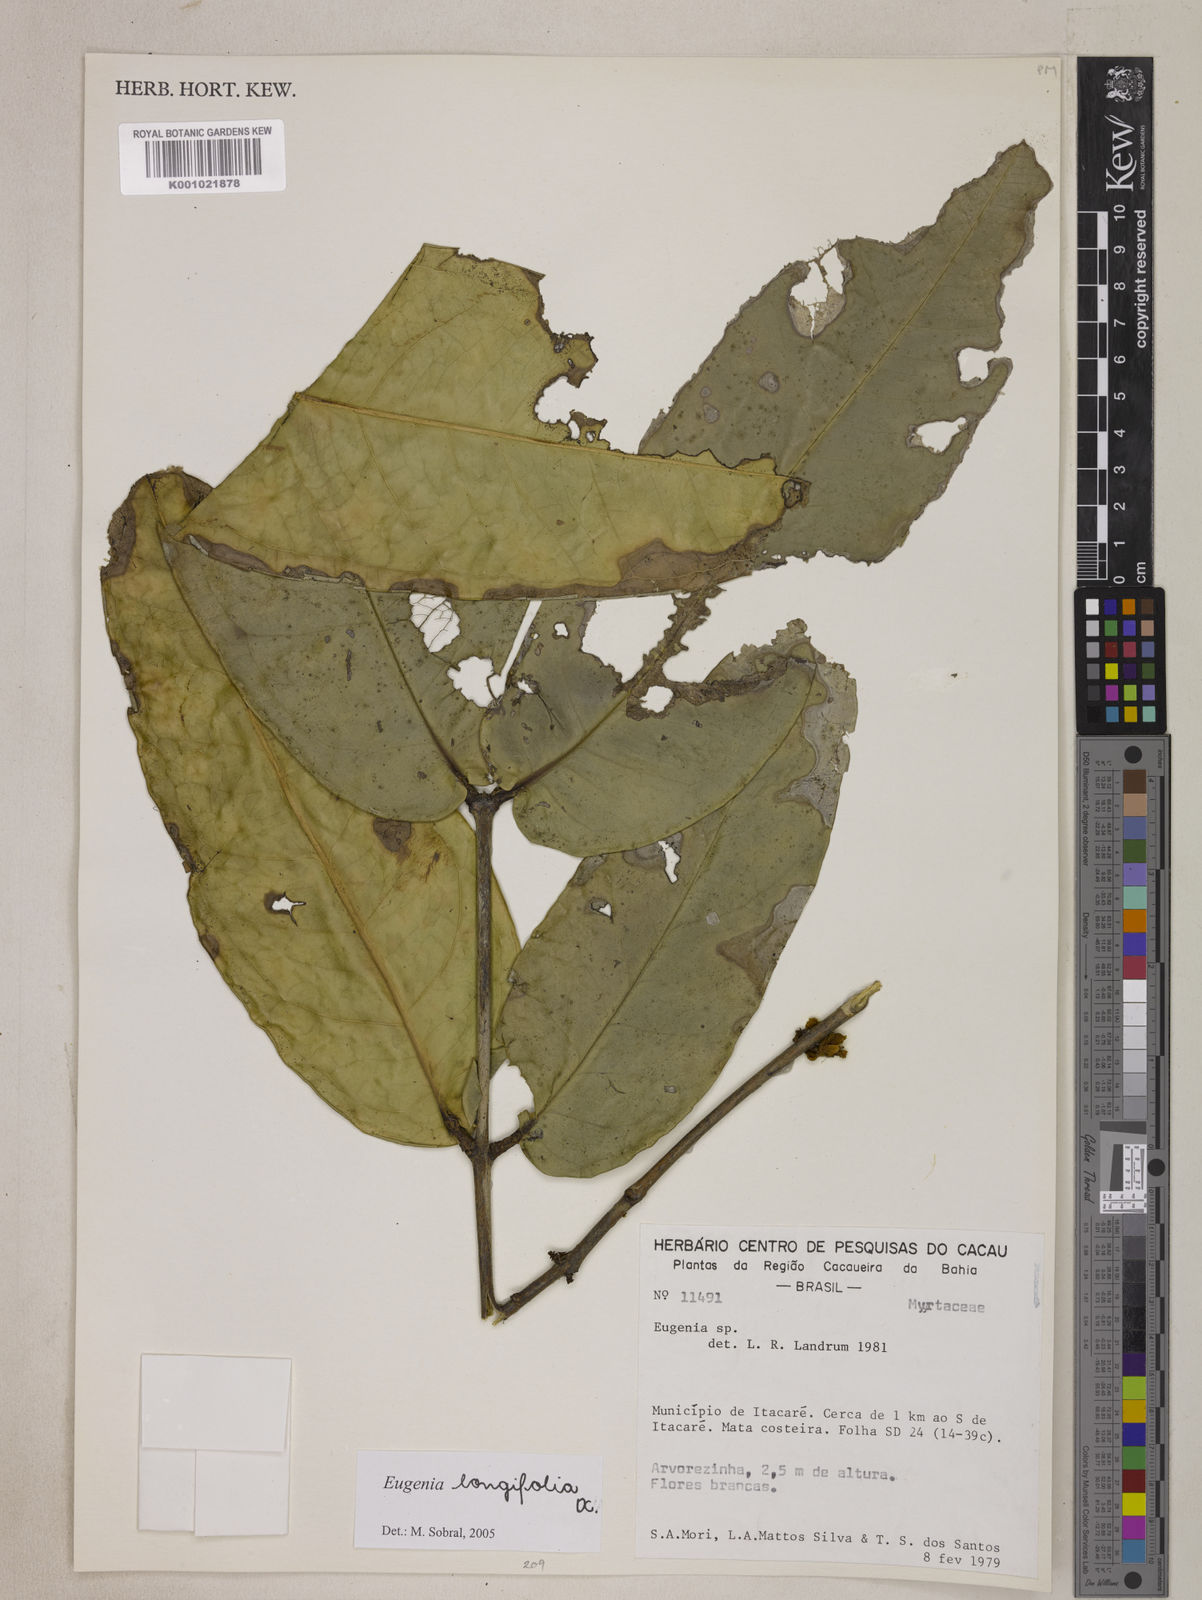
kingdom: Plantae
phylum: Tracheophyta
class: Magnoliopsida
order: Myrtales
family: Myrtaceae
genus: Eugenia
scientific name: Eugenia longifolia
